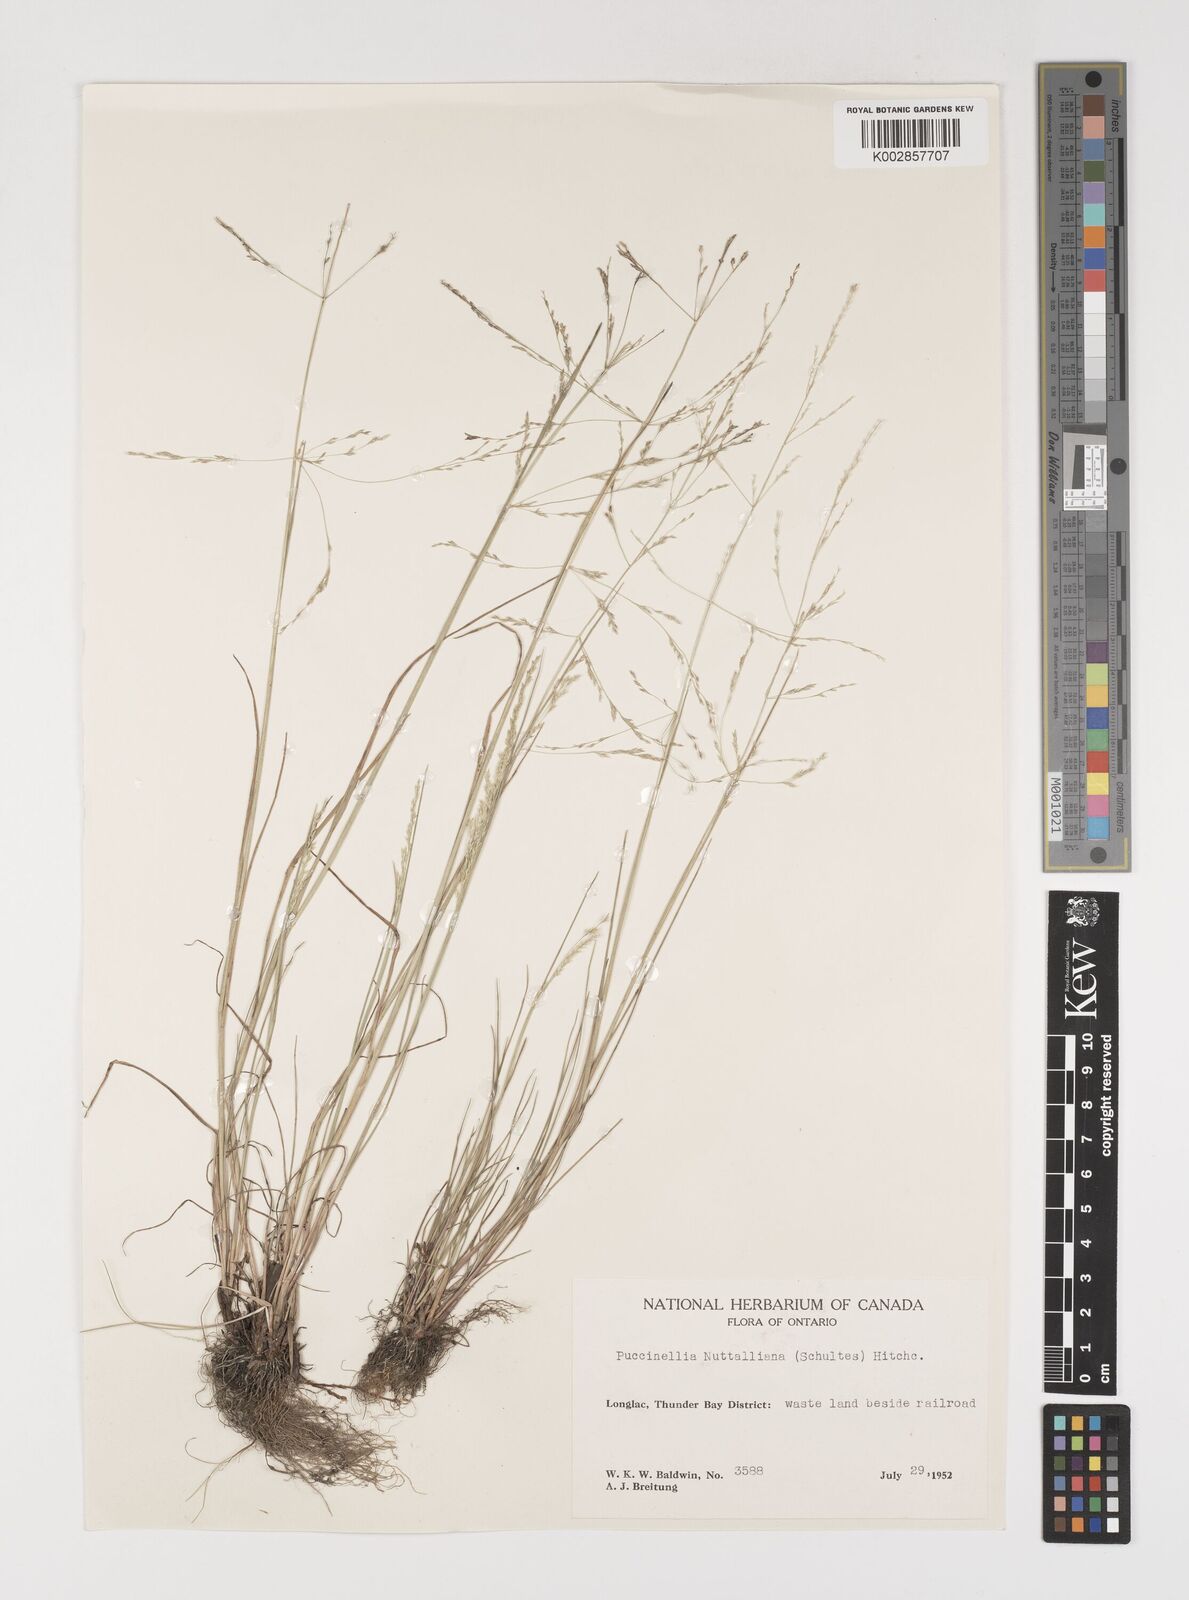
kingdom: Plantae
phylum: Tracheophyta
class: Liliopsida
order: Poales
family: Poaceae
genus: Puccinellia
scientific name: Puccinellia nuttalliana
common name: Nuttall's alkali grass
